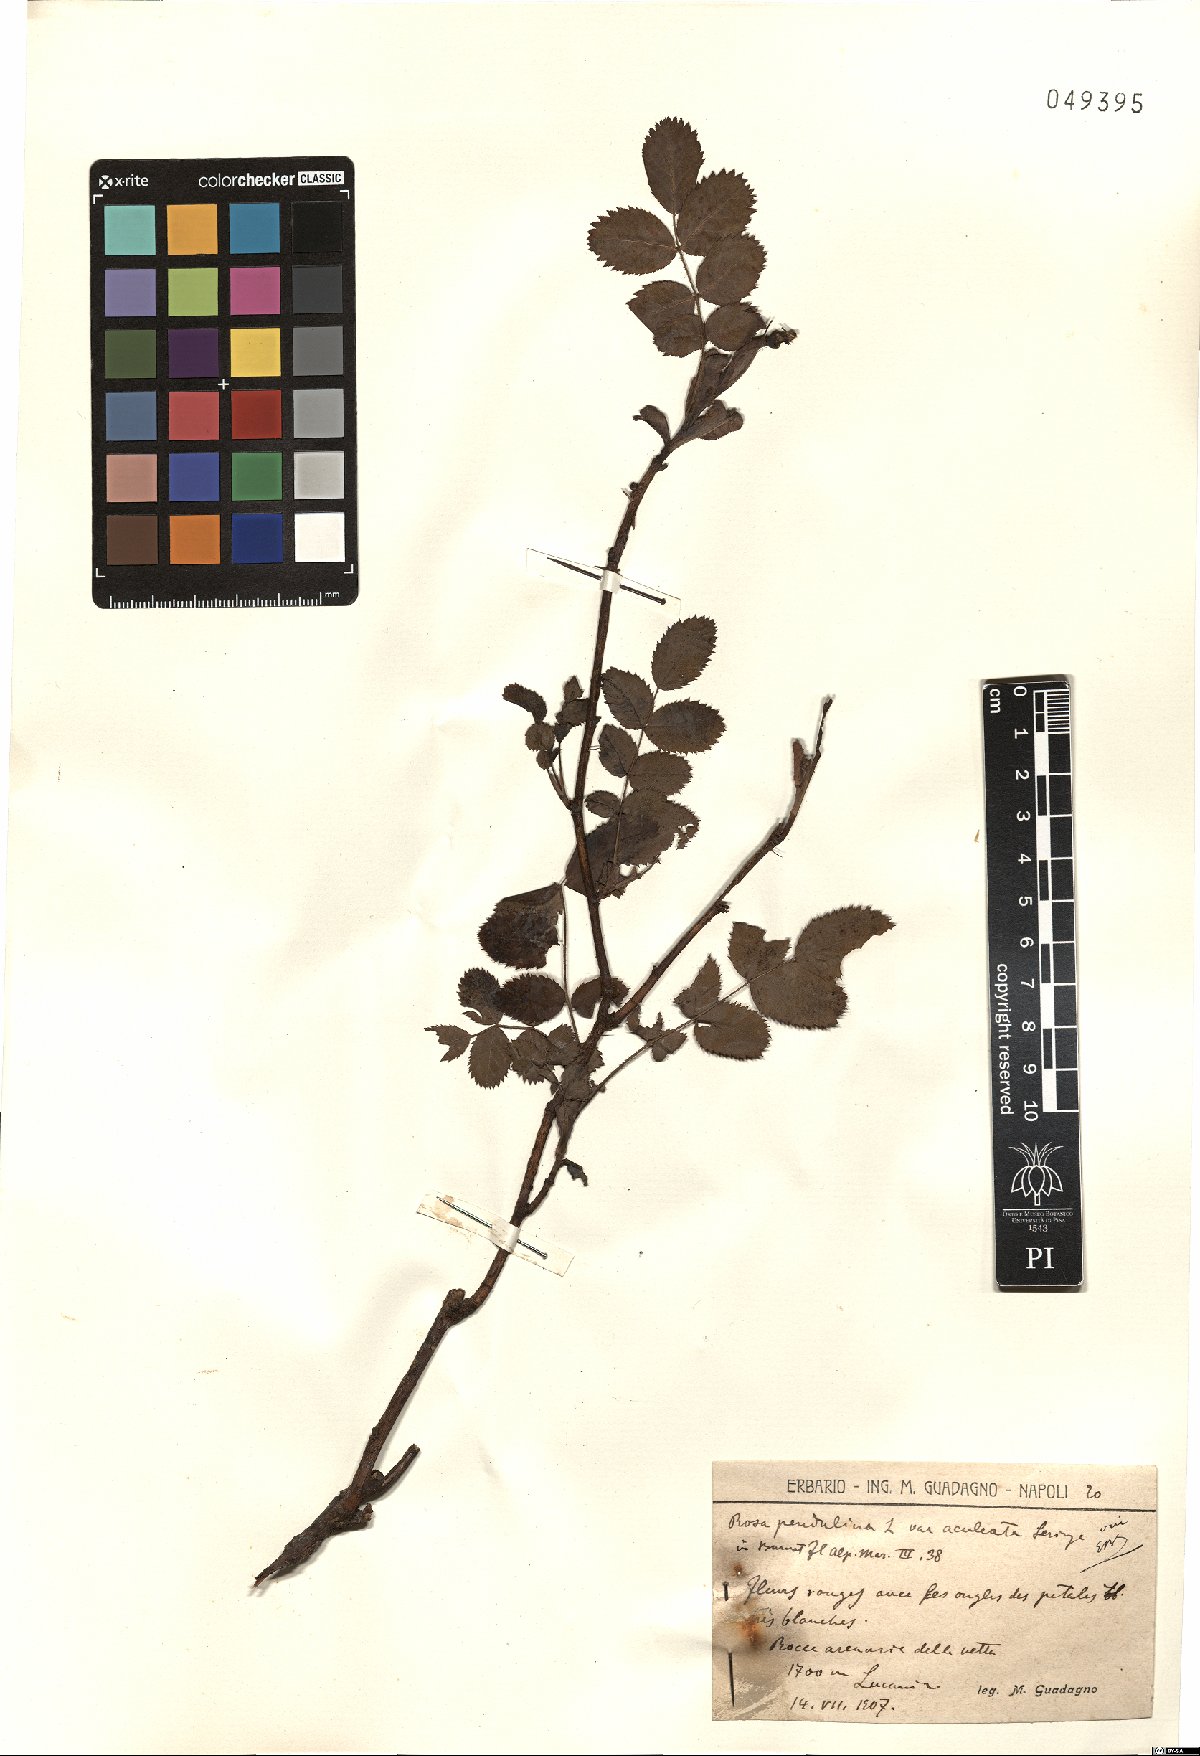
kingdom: Plantae
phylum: Tracheophyta
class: Magnoliopsida
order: Rosales
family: Rosaceae
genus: Rosa
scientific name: Rosa pendulina
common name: Alpine rose
